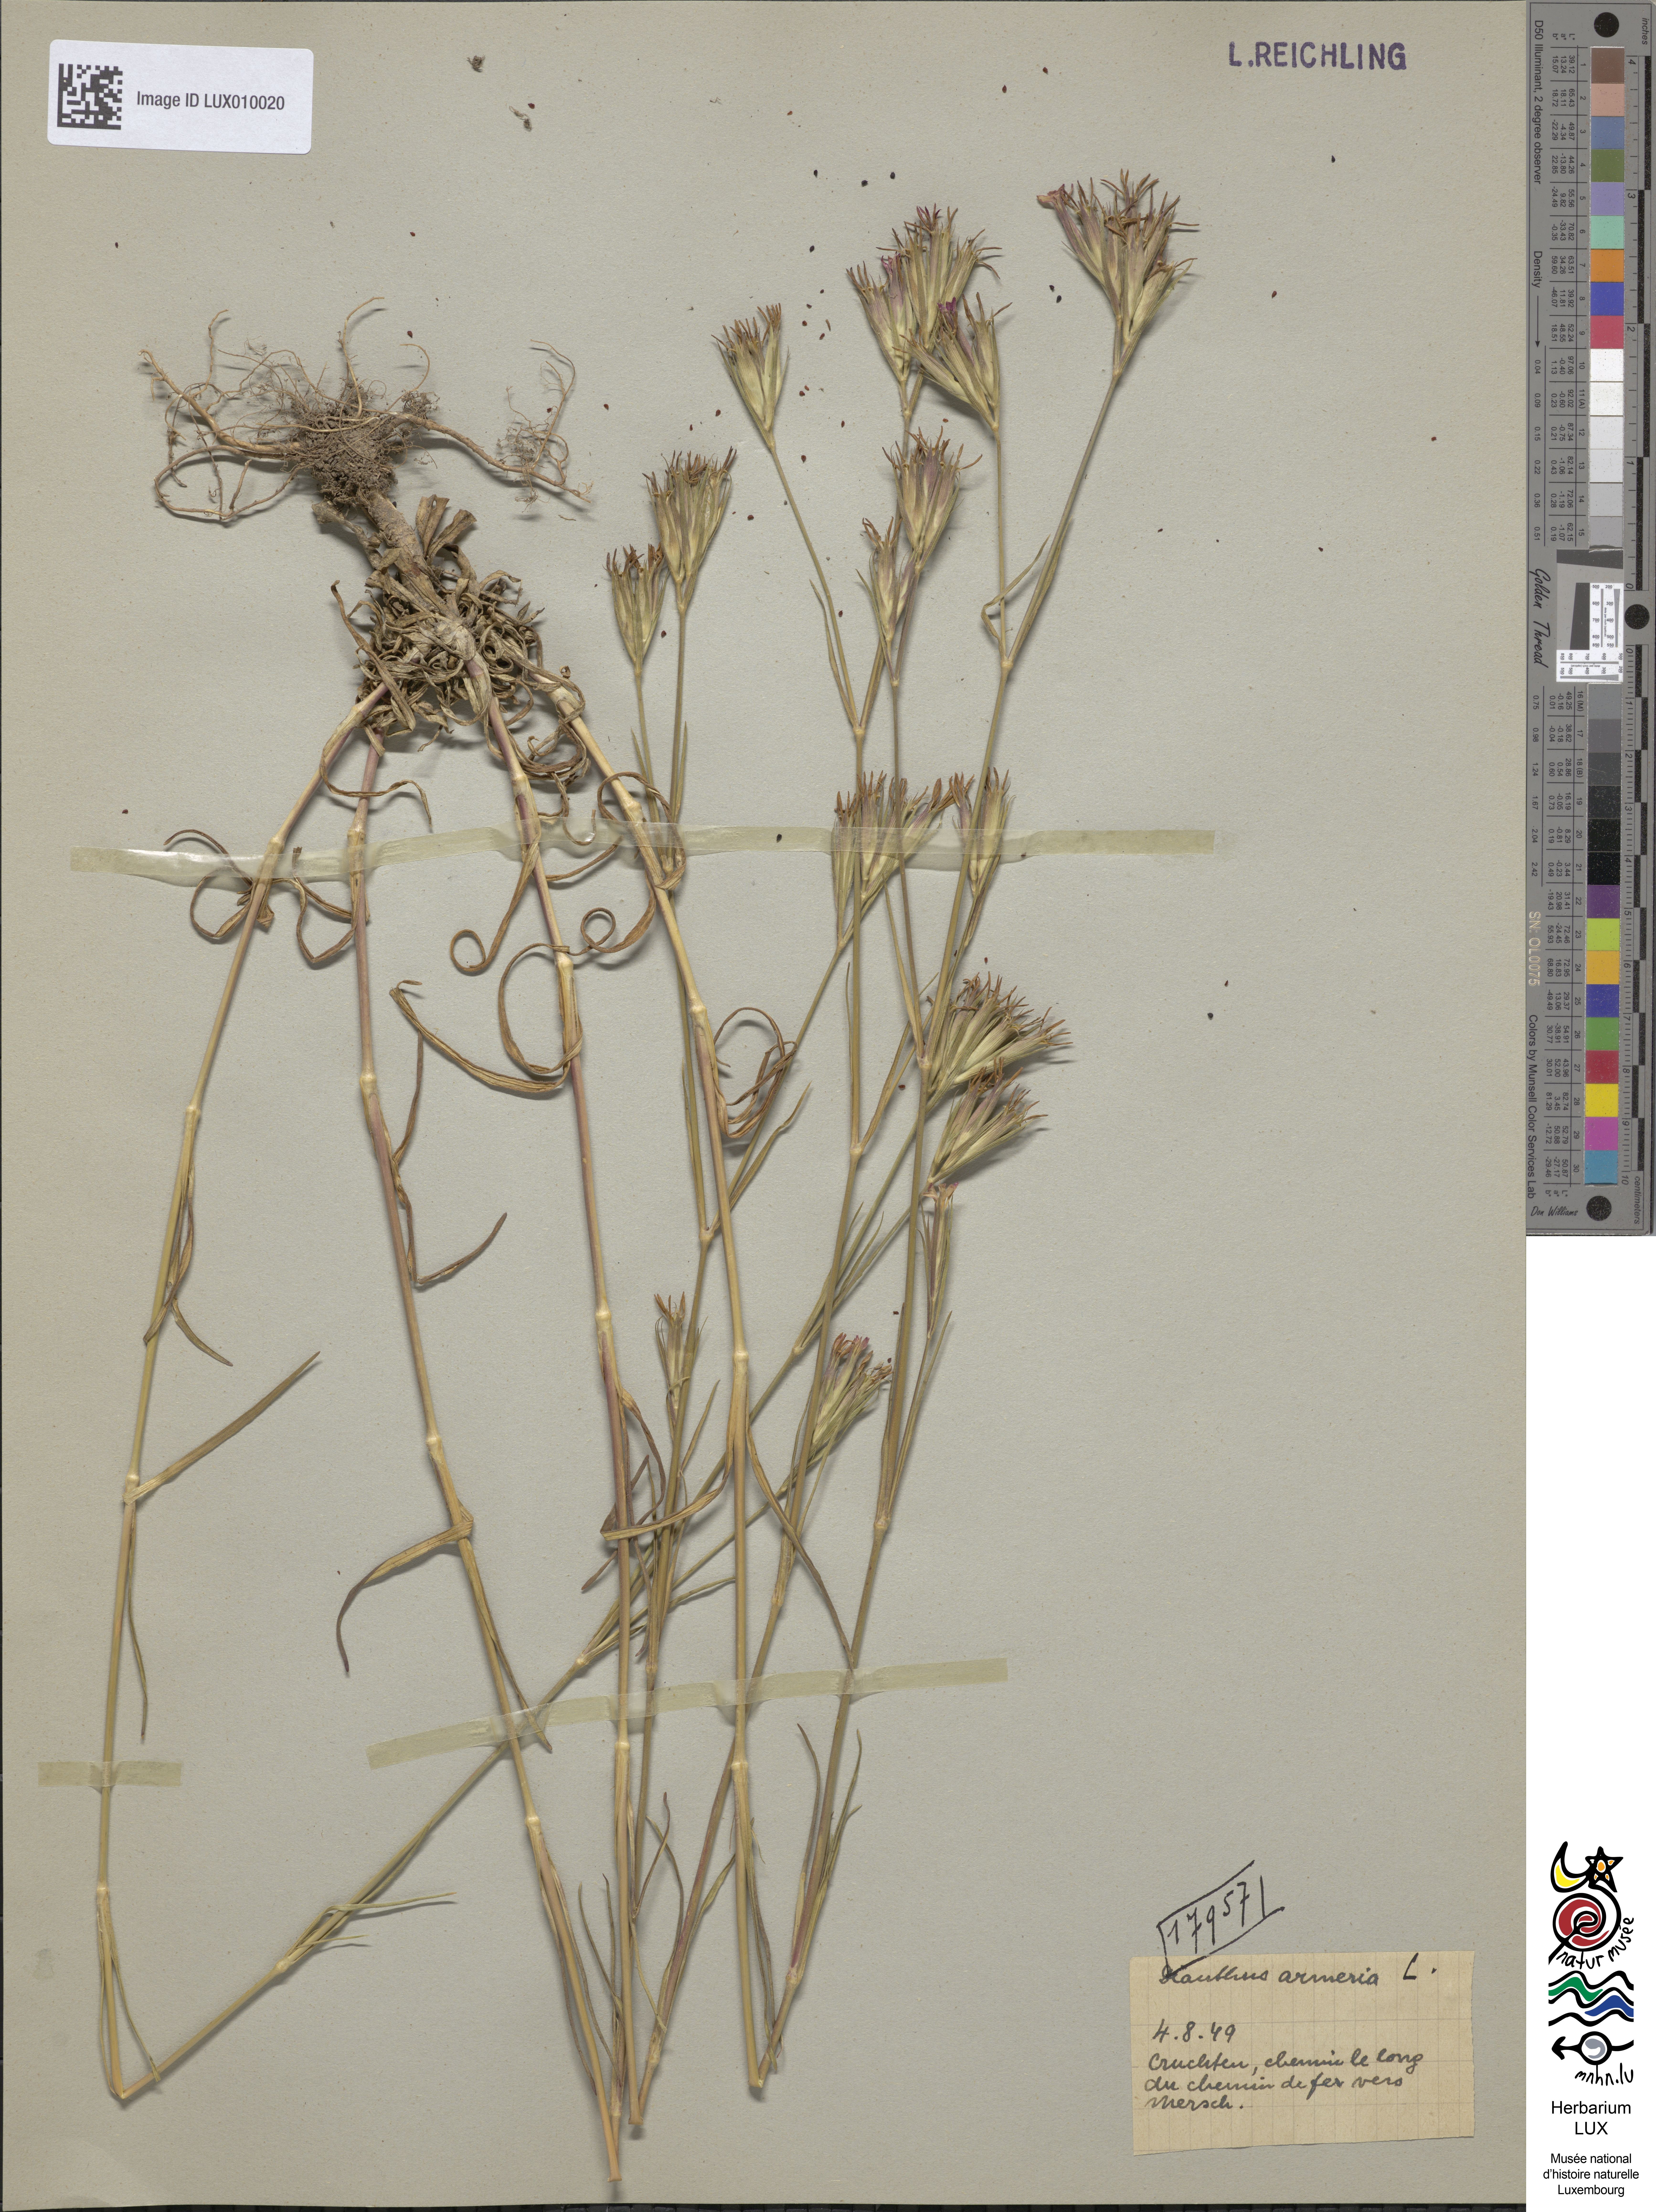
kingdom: Plantae
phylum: Tracheophyta
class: Magnoliopsida
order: Caryophyllales
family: Caryophyllaceae
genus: Dianthus
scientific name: Dianthus armeria
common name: Deptford pink
